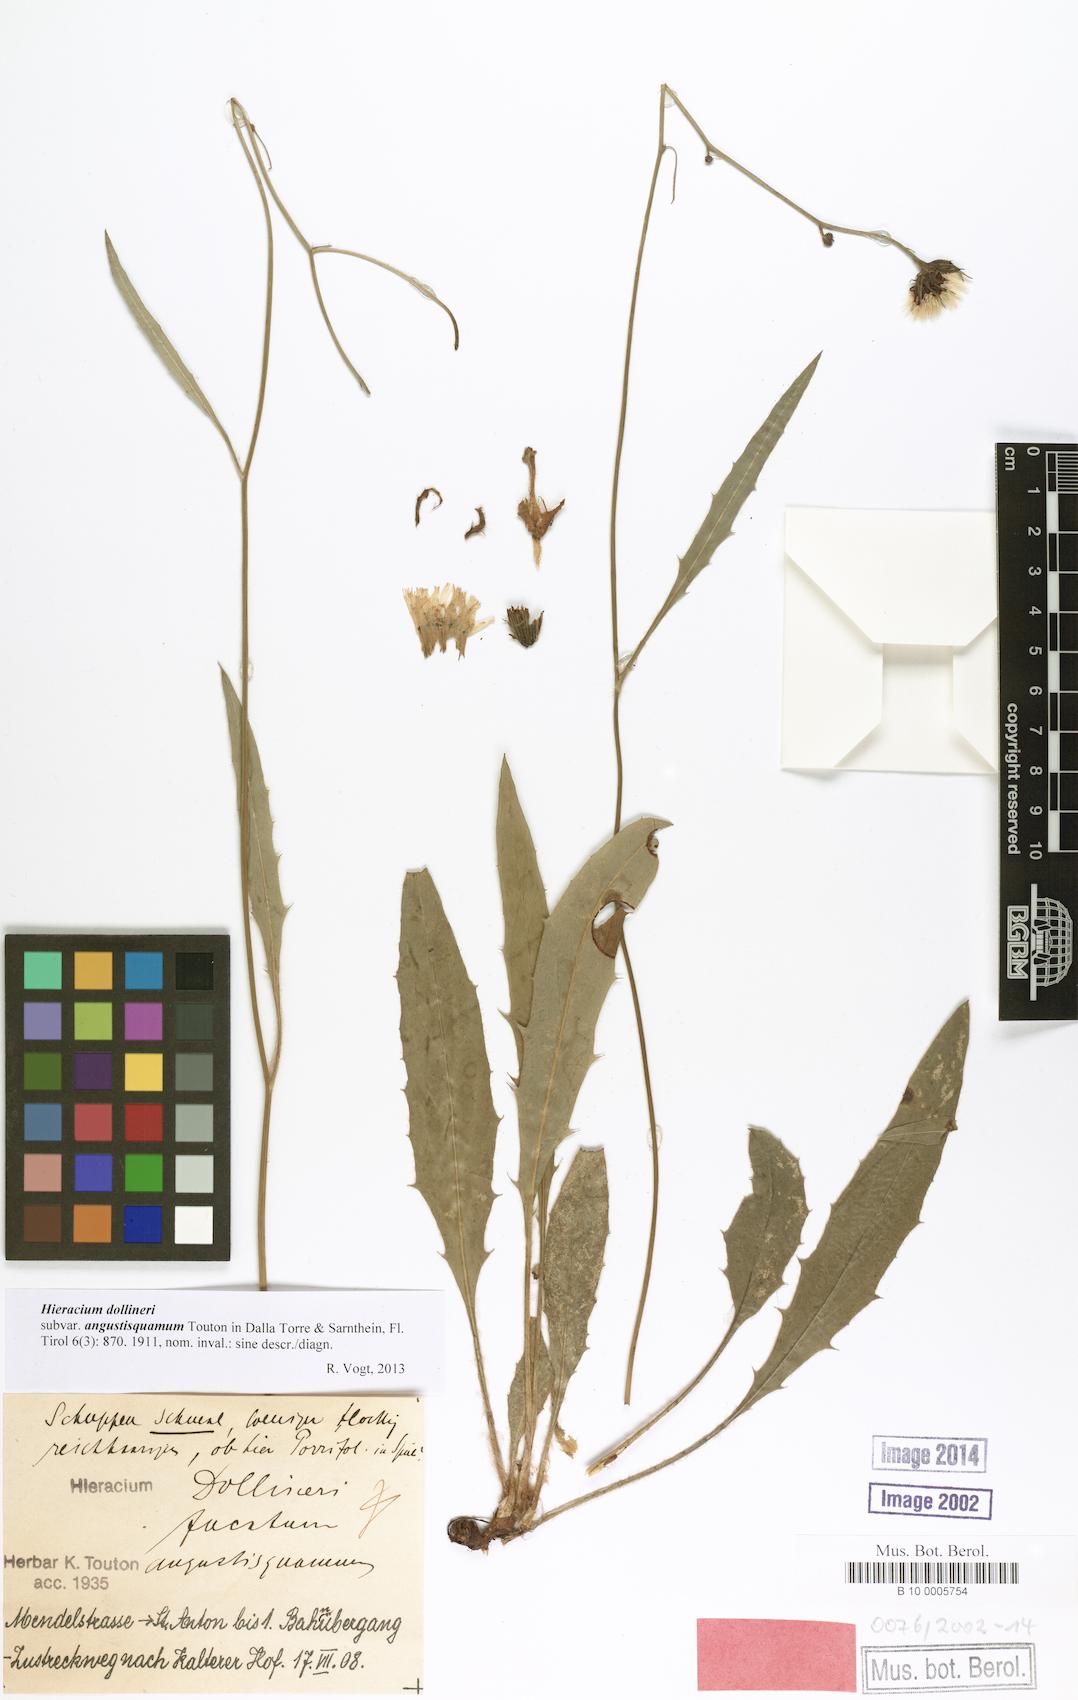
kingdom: Plantae
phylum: Tracheophyta
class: Magnoliopsida
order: Asterales
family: Asteraceae
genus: Hieracium
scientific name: Hieracium dollineri
